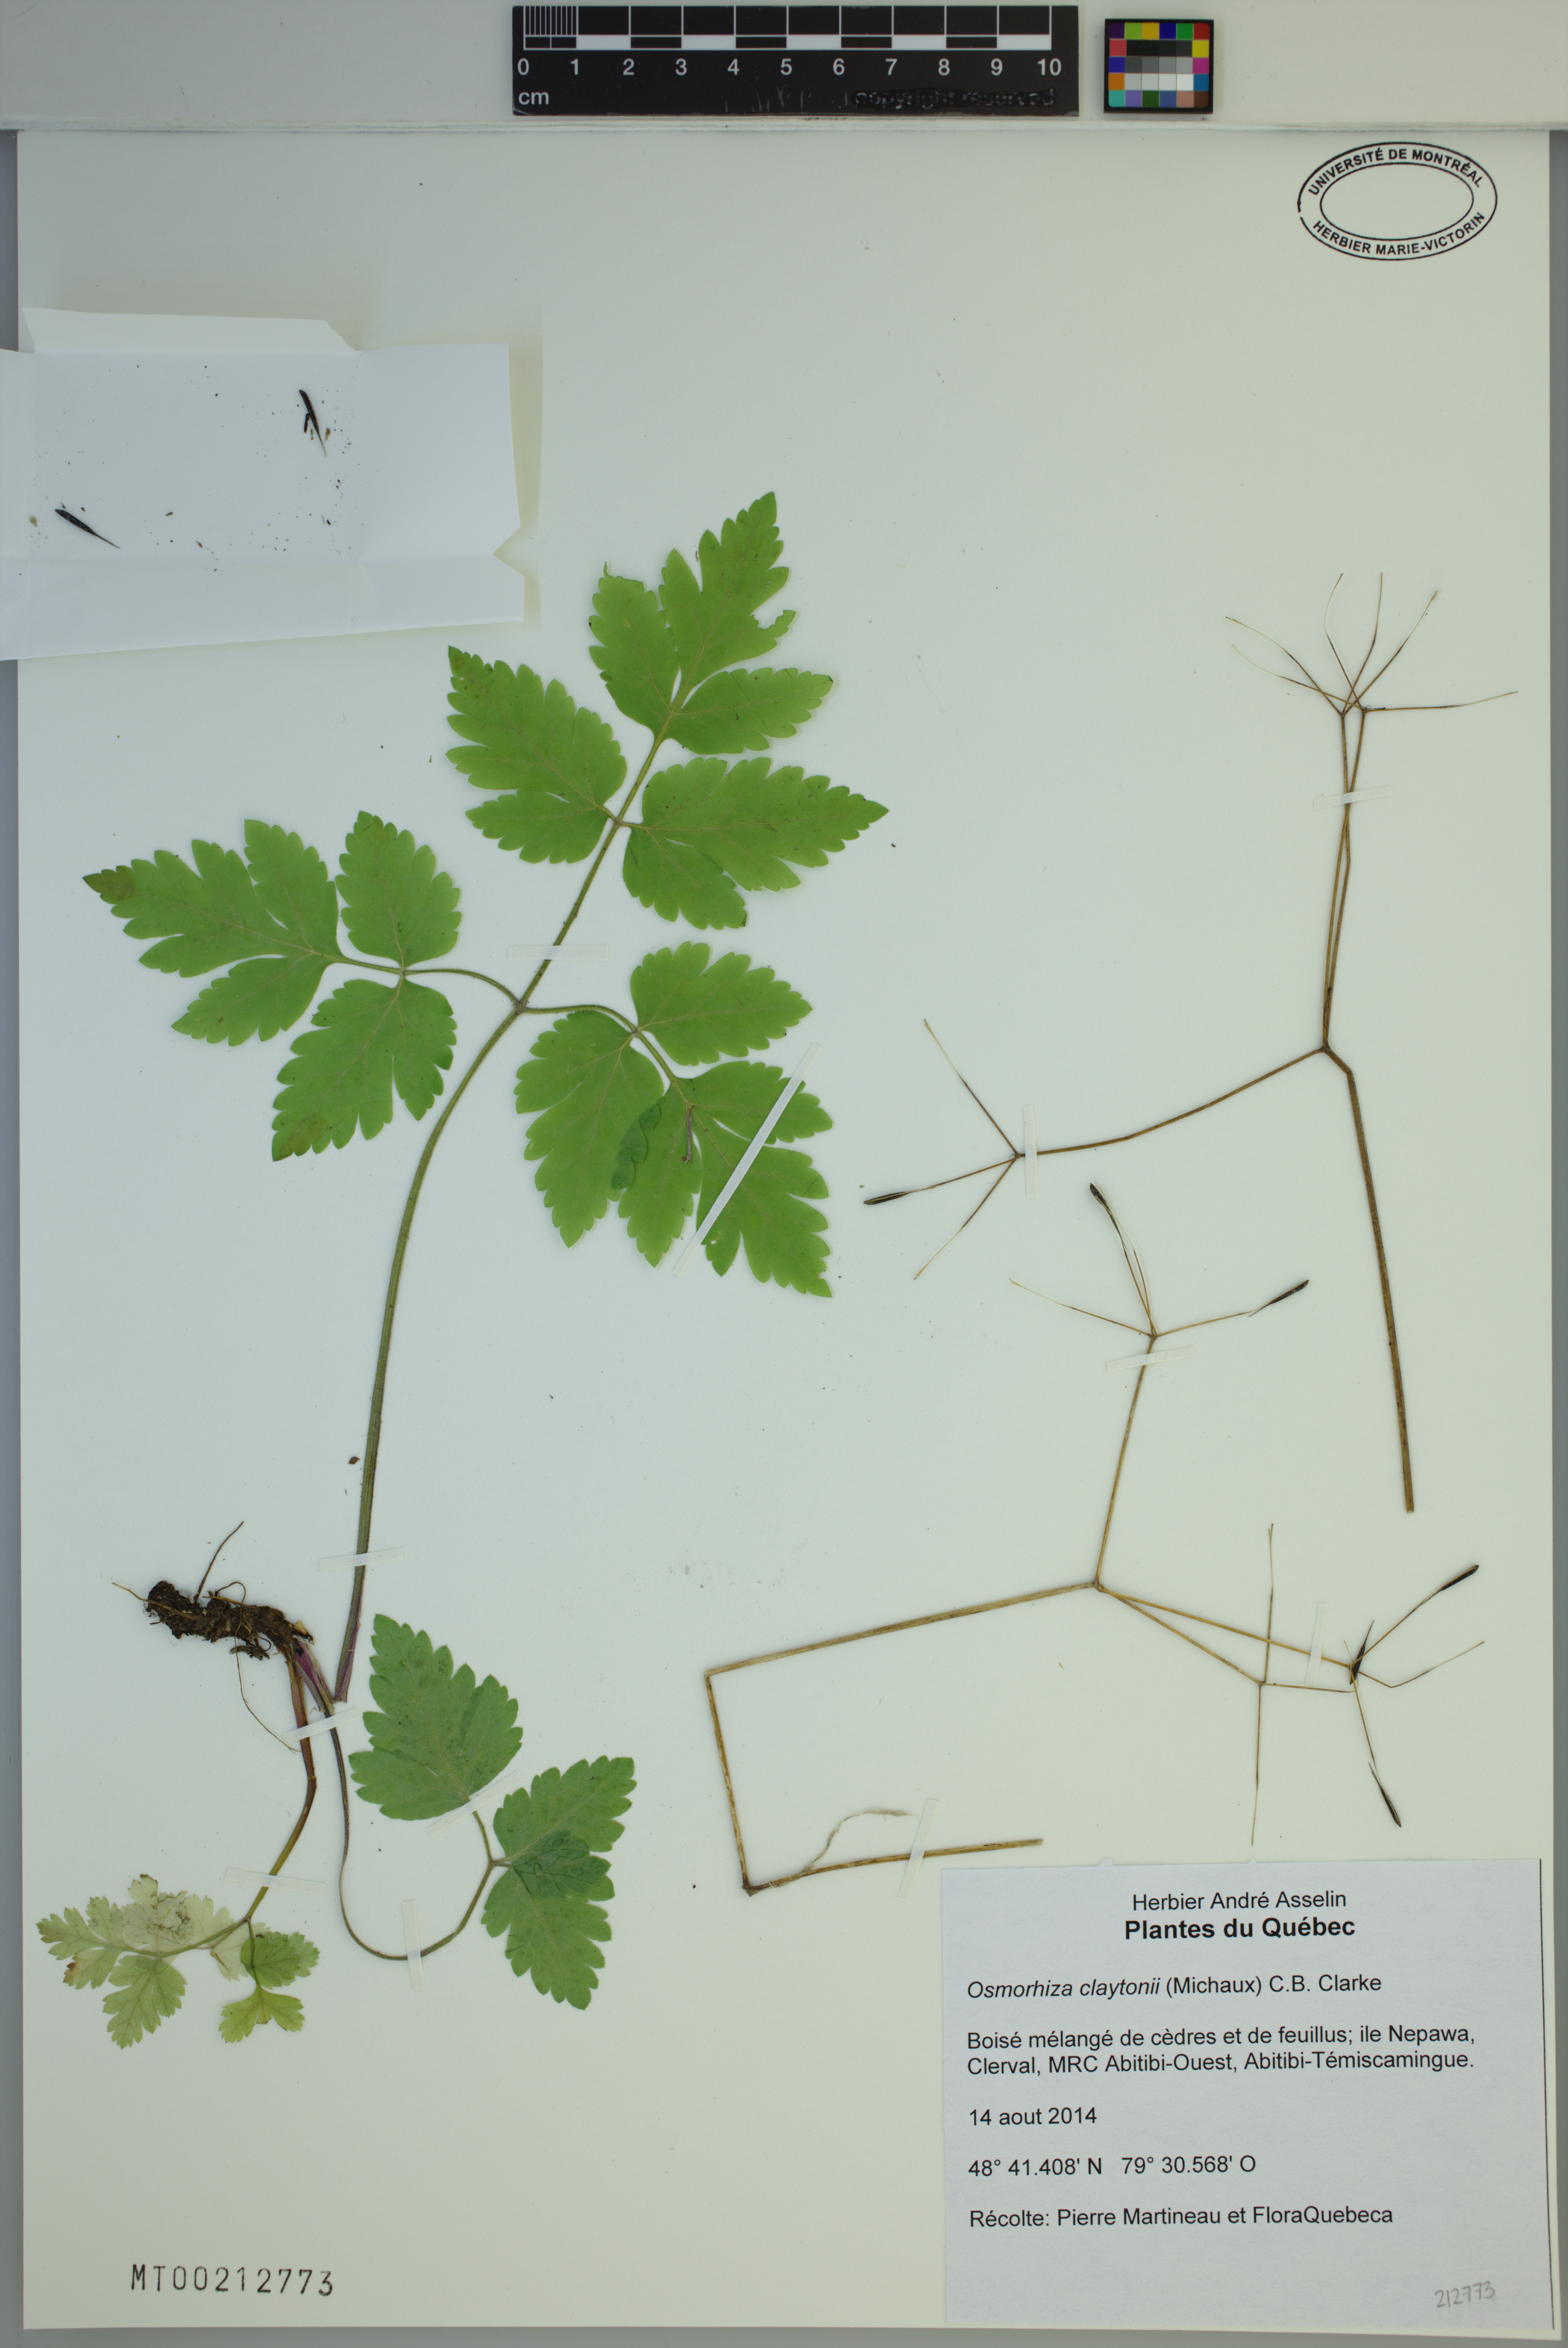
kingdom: Plantae
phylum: Tracheophyta
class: Magnoliopsida
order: Apiales
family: Apiaceae
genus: Osmorhiza
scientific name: Osmorhiza claytonii
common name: Hairy sweet cicely
